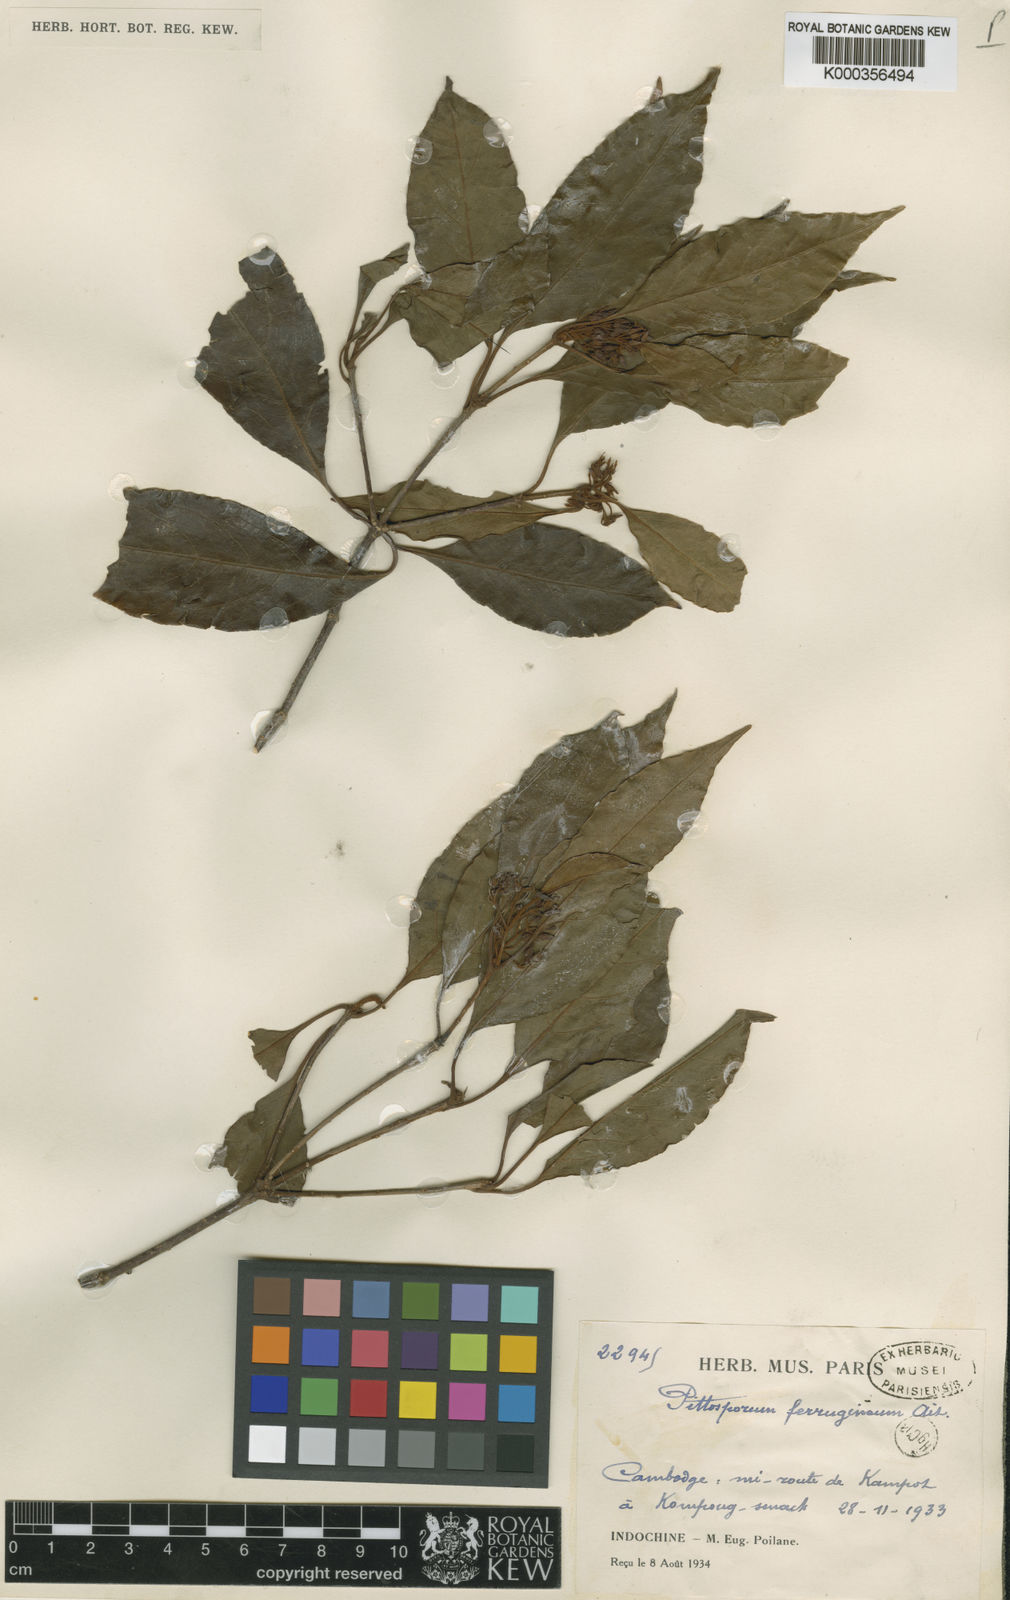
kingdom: Plantae
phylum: Tracheophyta
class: Magnoliopsida
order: Apiales
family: Pittosporaceae
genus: Pittosporum
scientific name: Pittosporum ferrugineum
